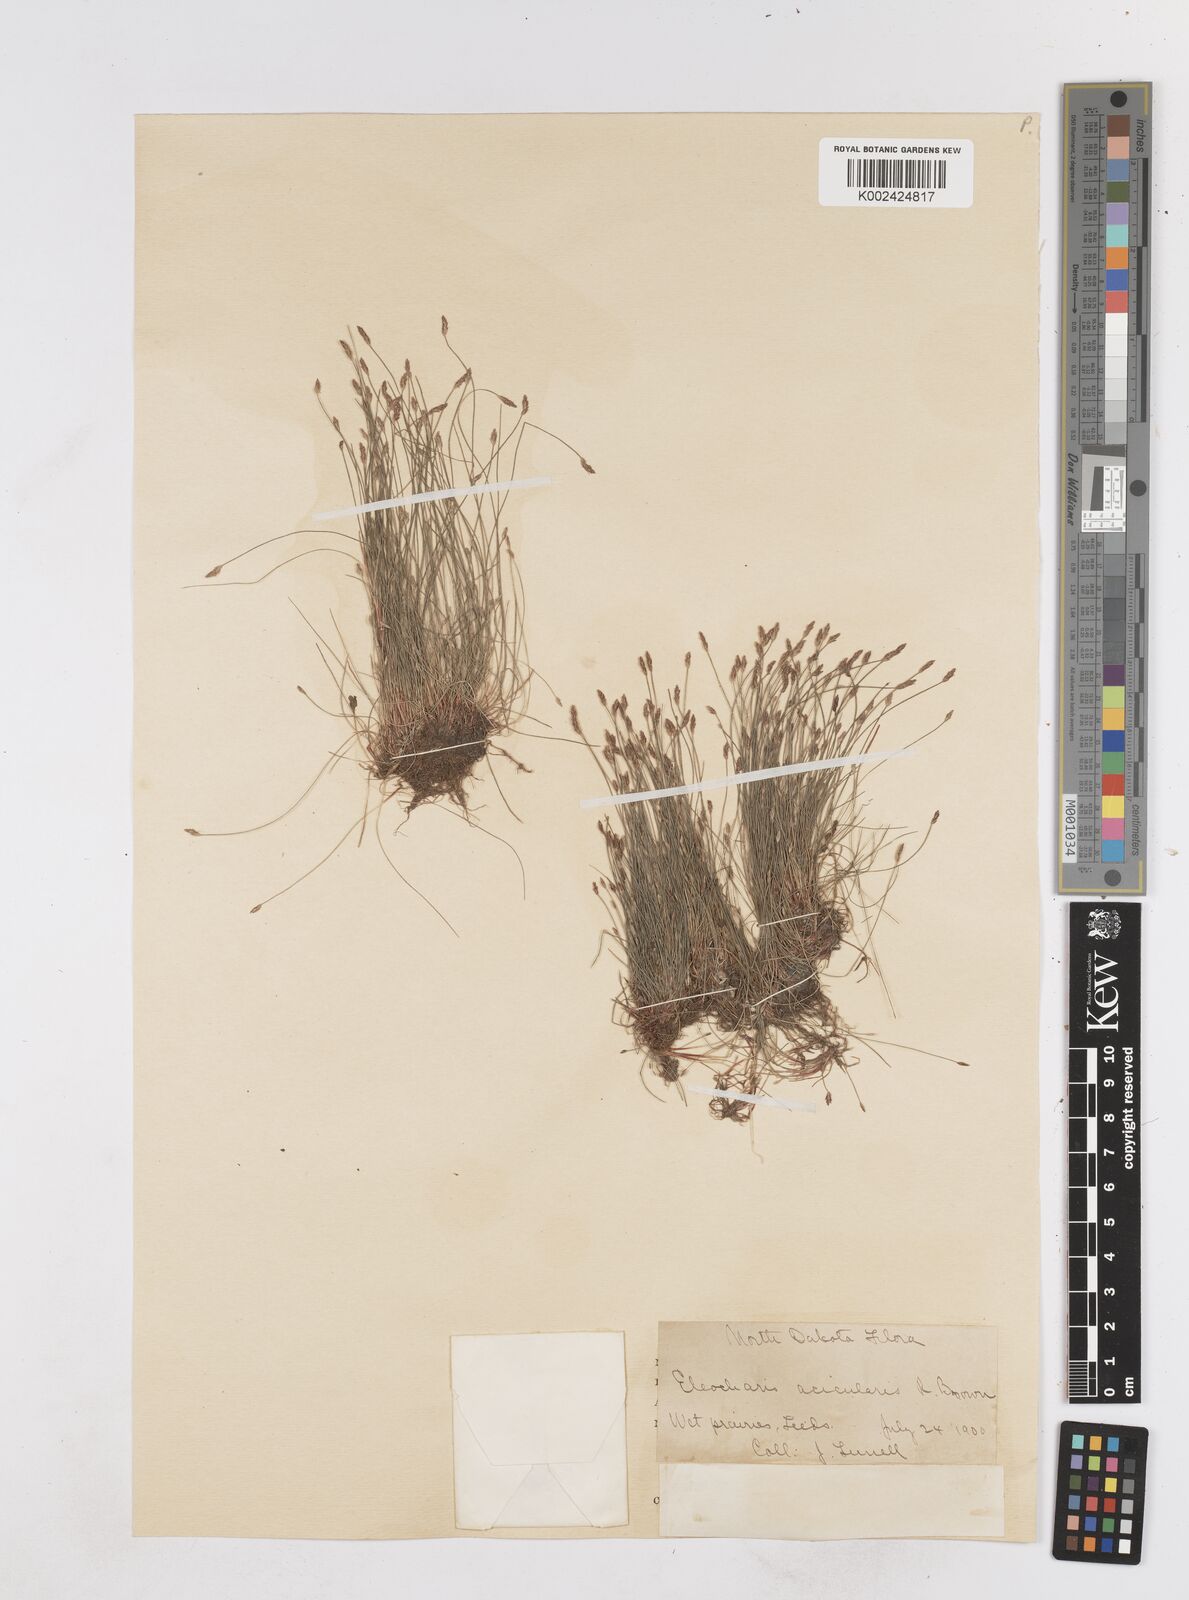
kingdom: Plantae
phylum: Tracheophyta
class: Liliopsida
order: Poales
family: Cyperaceae
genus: Eleocharis
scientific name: Eleocharis acicularis
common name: Needle spike-rush
